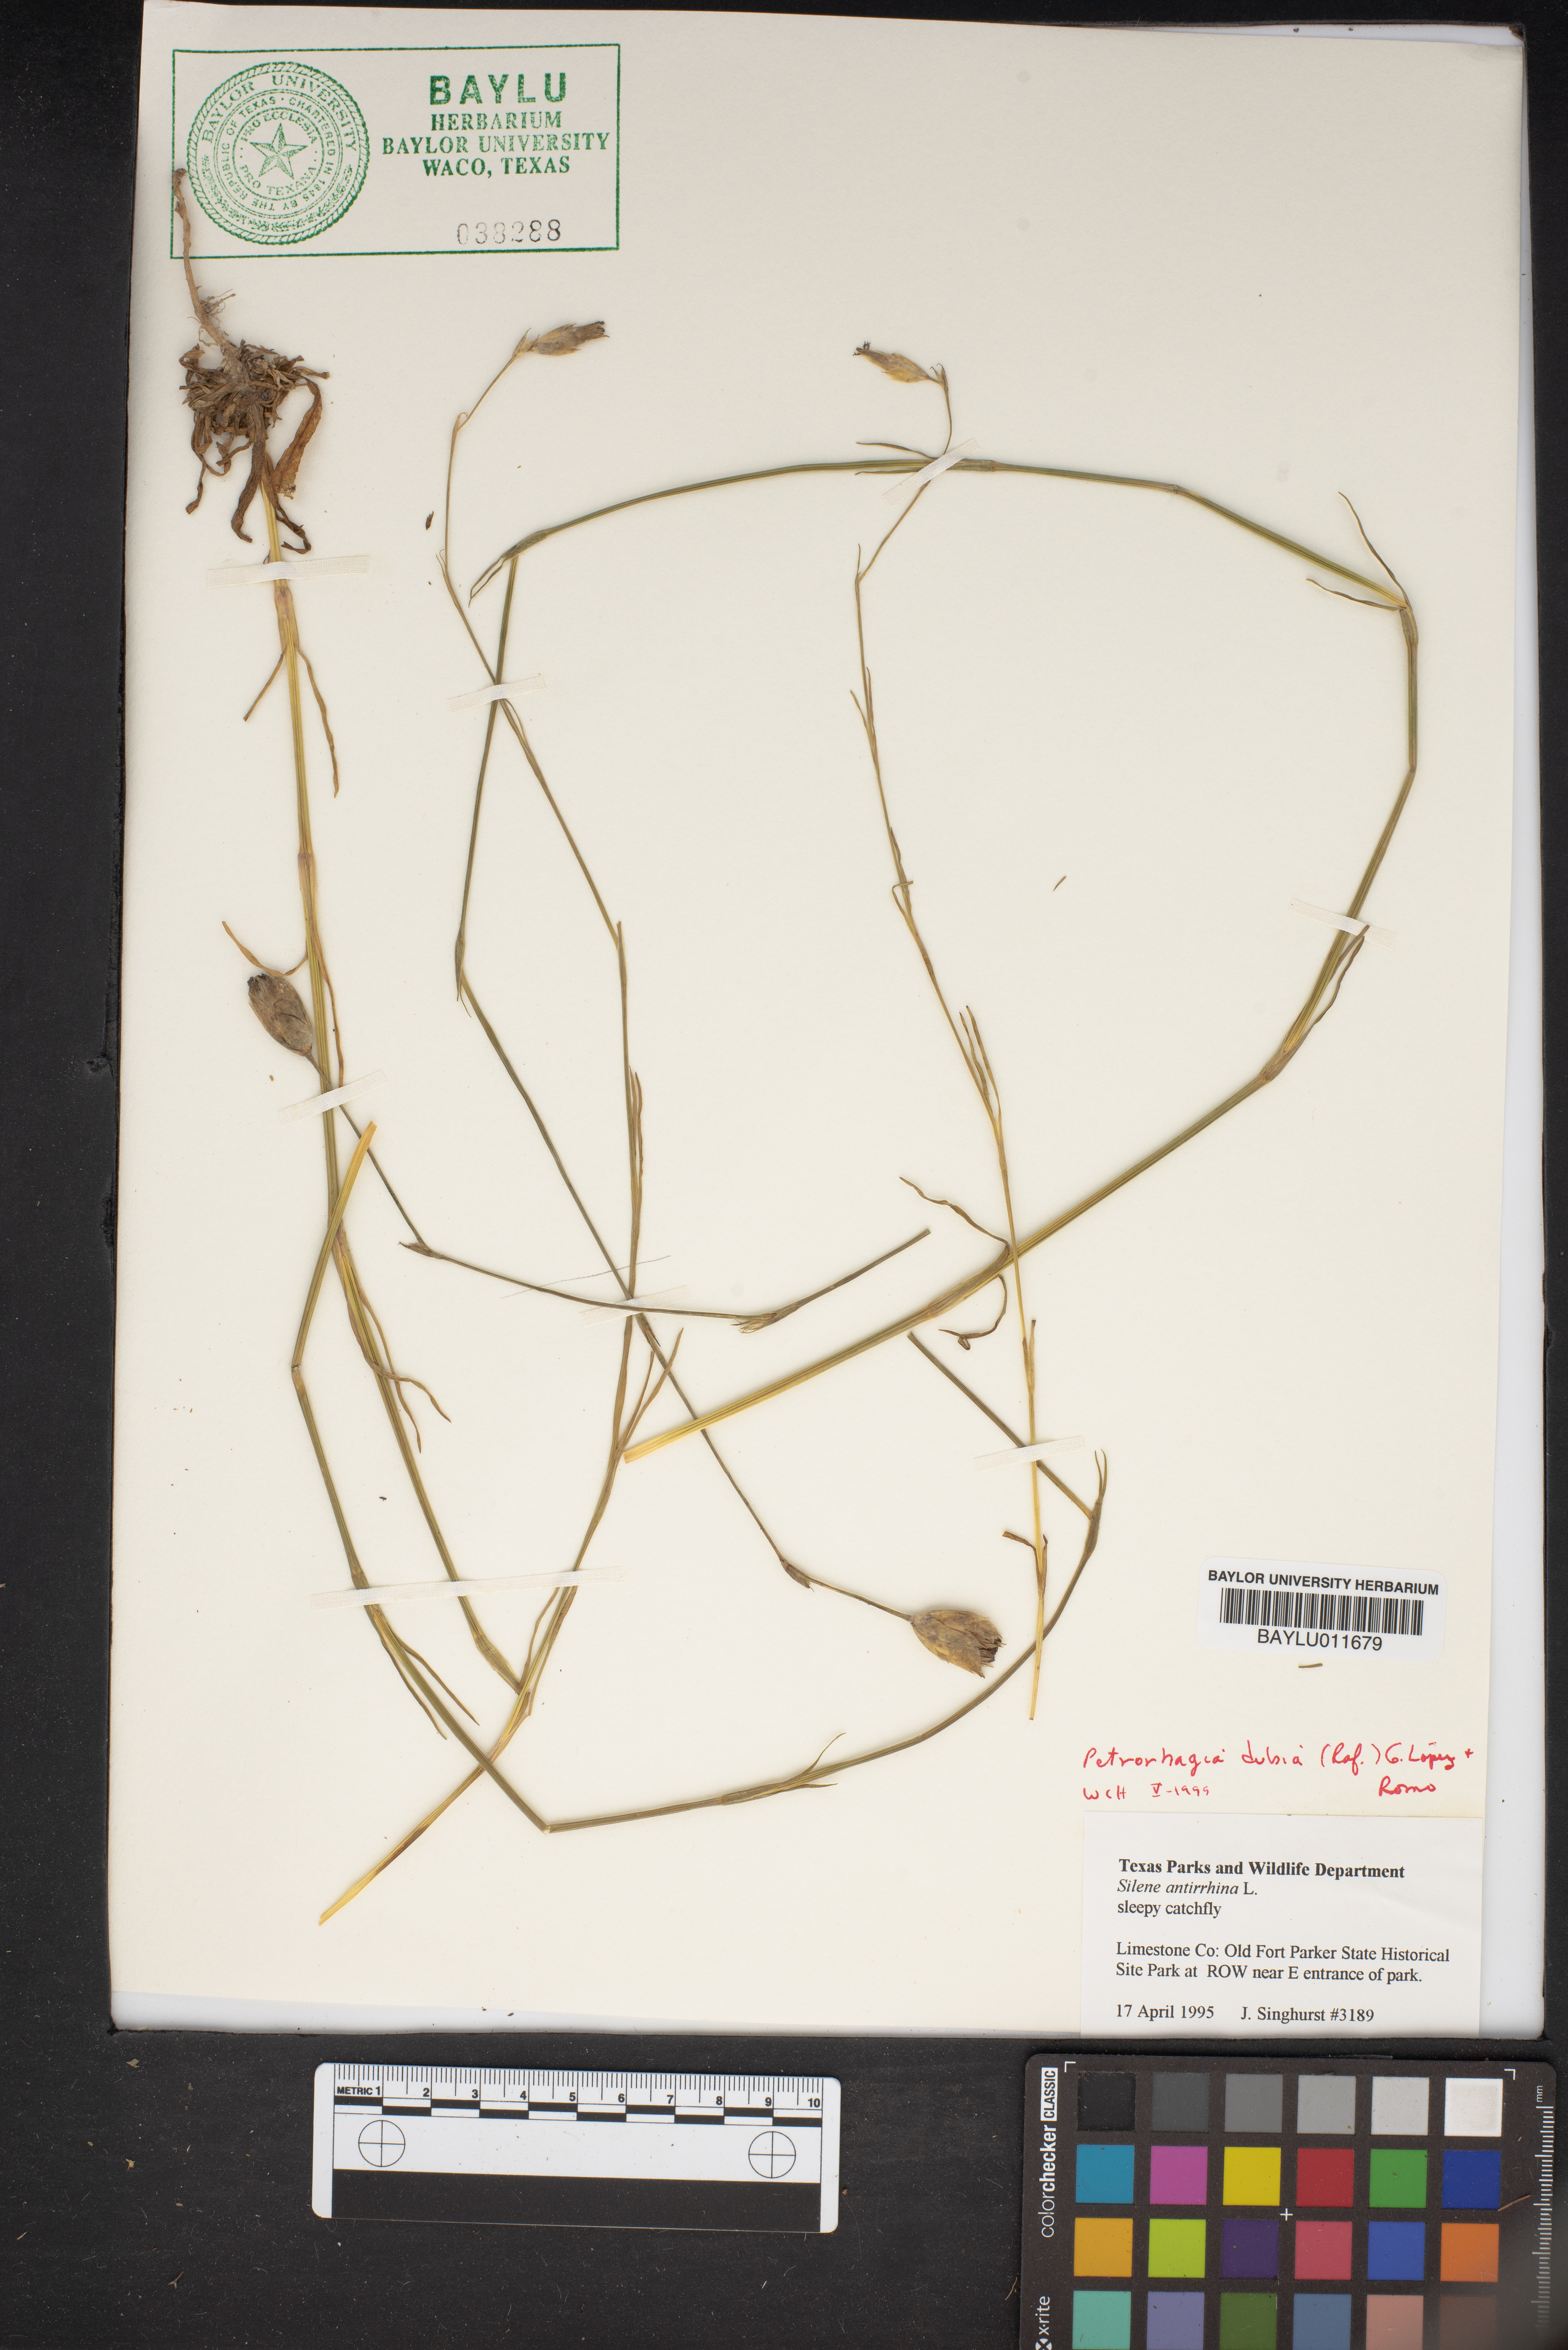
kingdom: Plantae
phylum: Tracheophyta
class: Magnoliopsida
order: Caryophyllales
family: Caryophyllaceae
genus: Petrorhagia
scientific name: Petrorhagia dubia
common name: Hairypink
